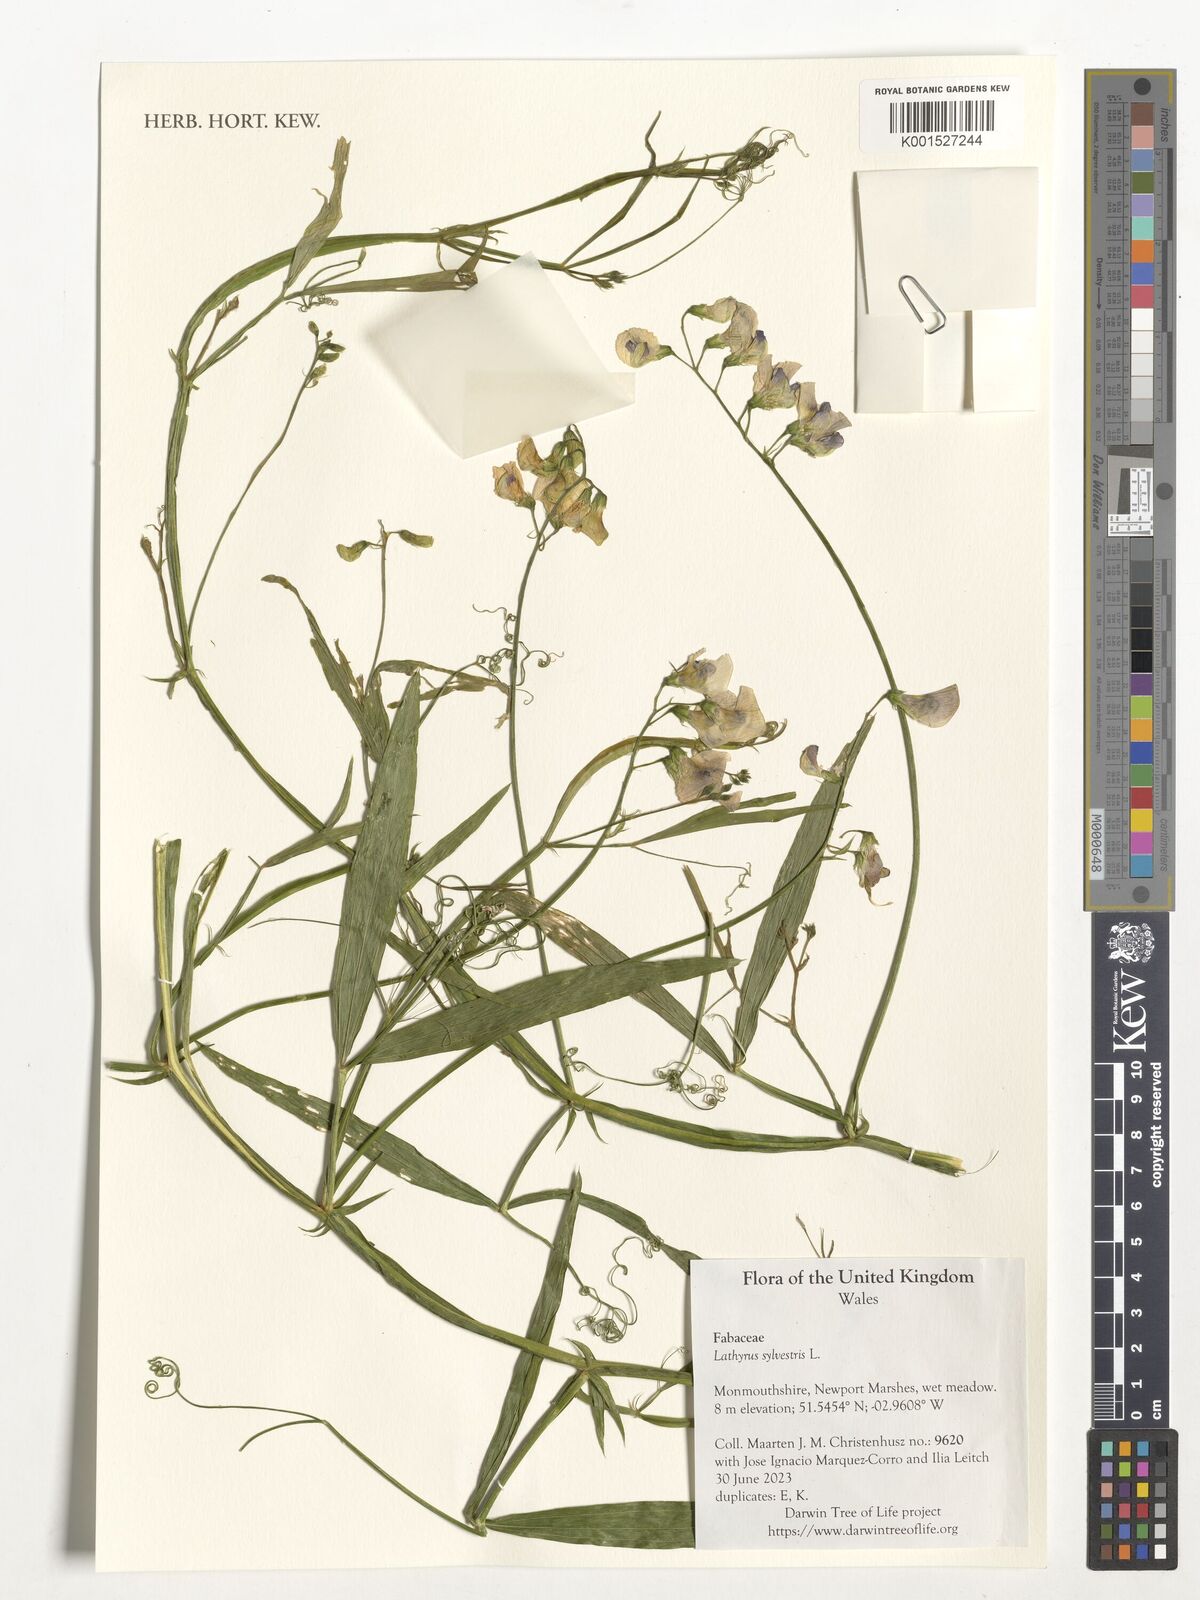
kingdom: Plantae
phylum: Tracheophyta
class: Magnoliopsida
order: Fabales
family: Fabaceae
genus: Lathyrus
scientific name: Lathyrus sylvestris
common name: Flat pea
